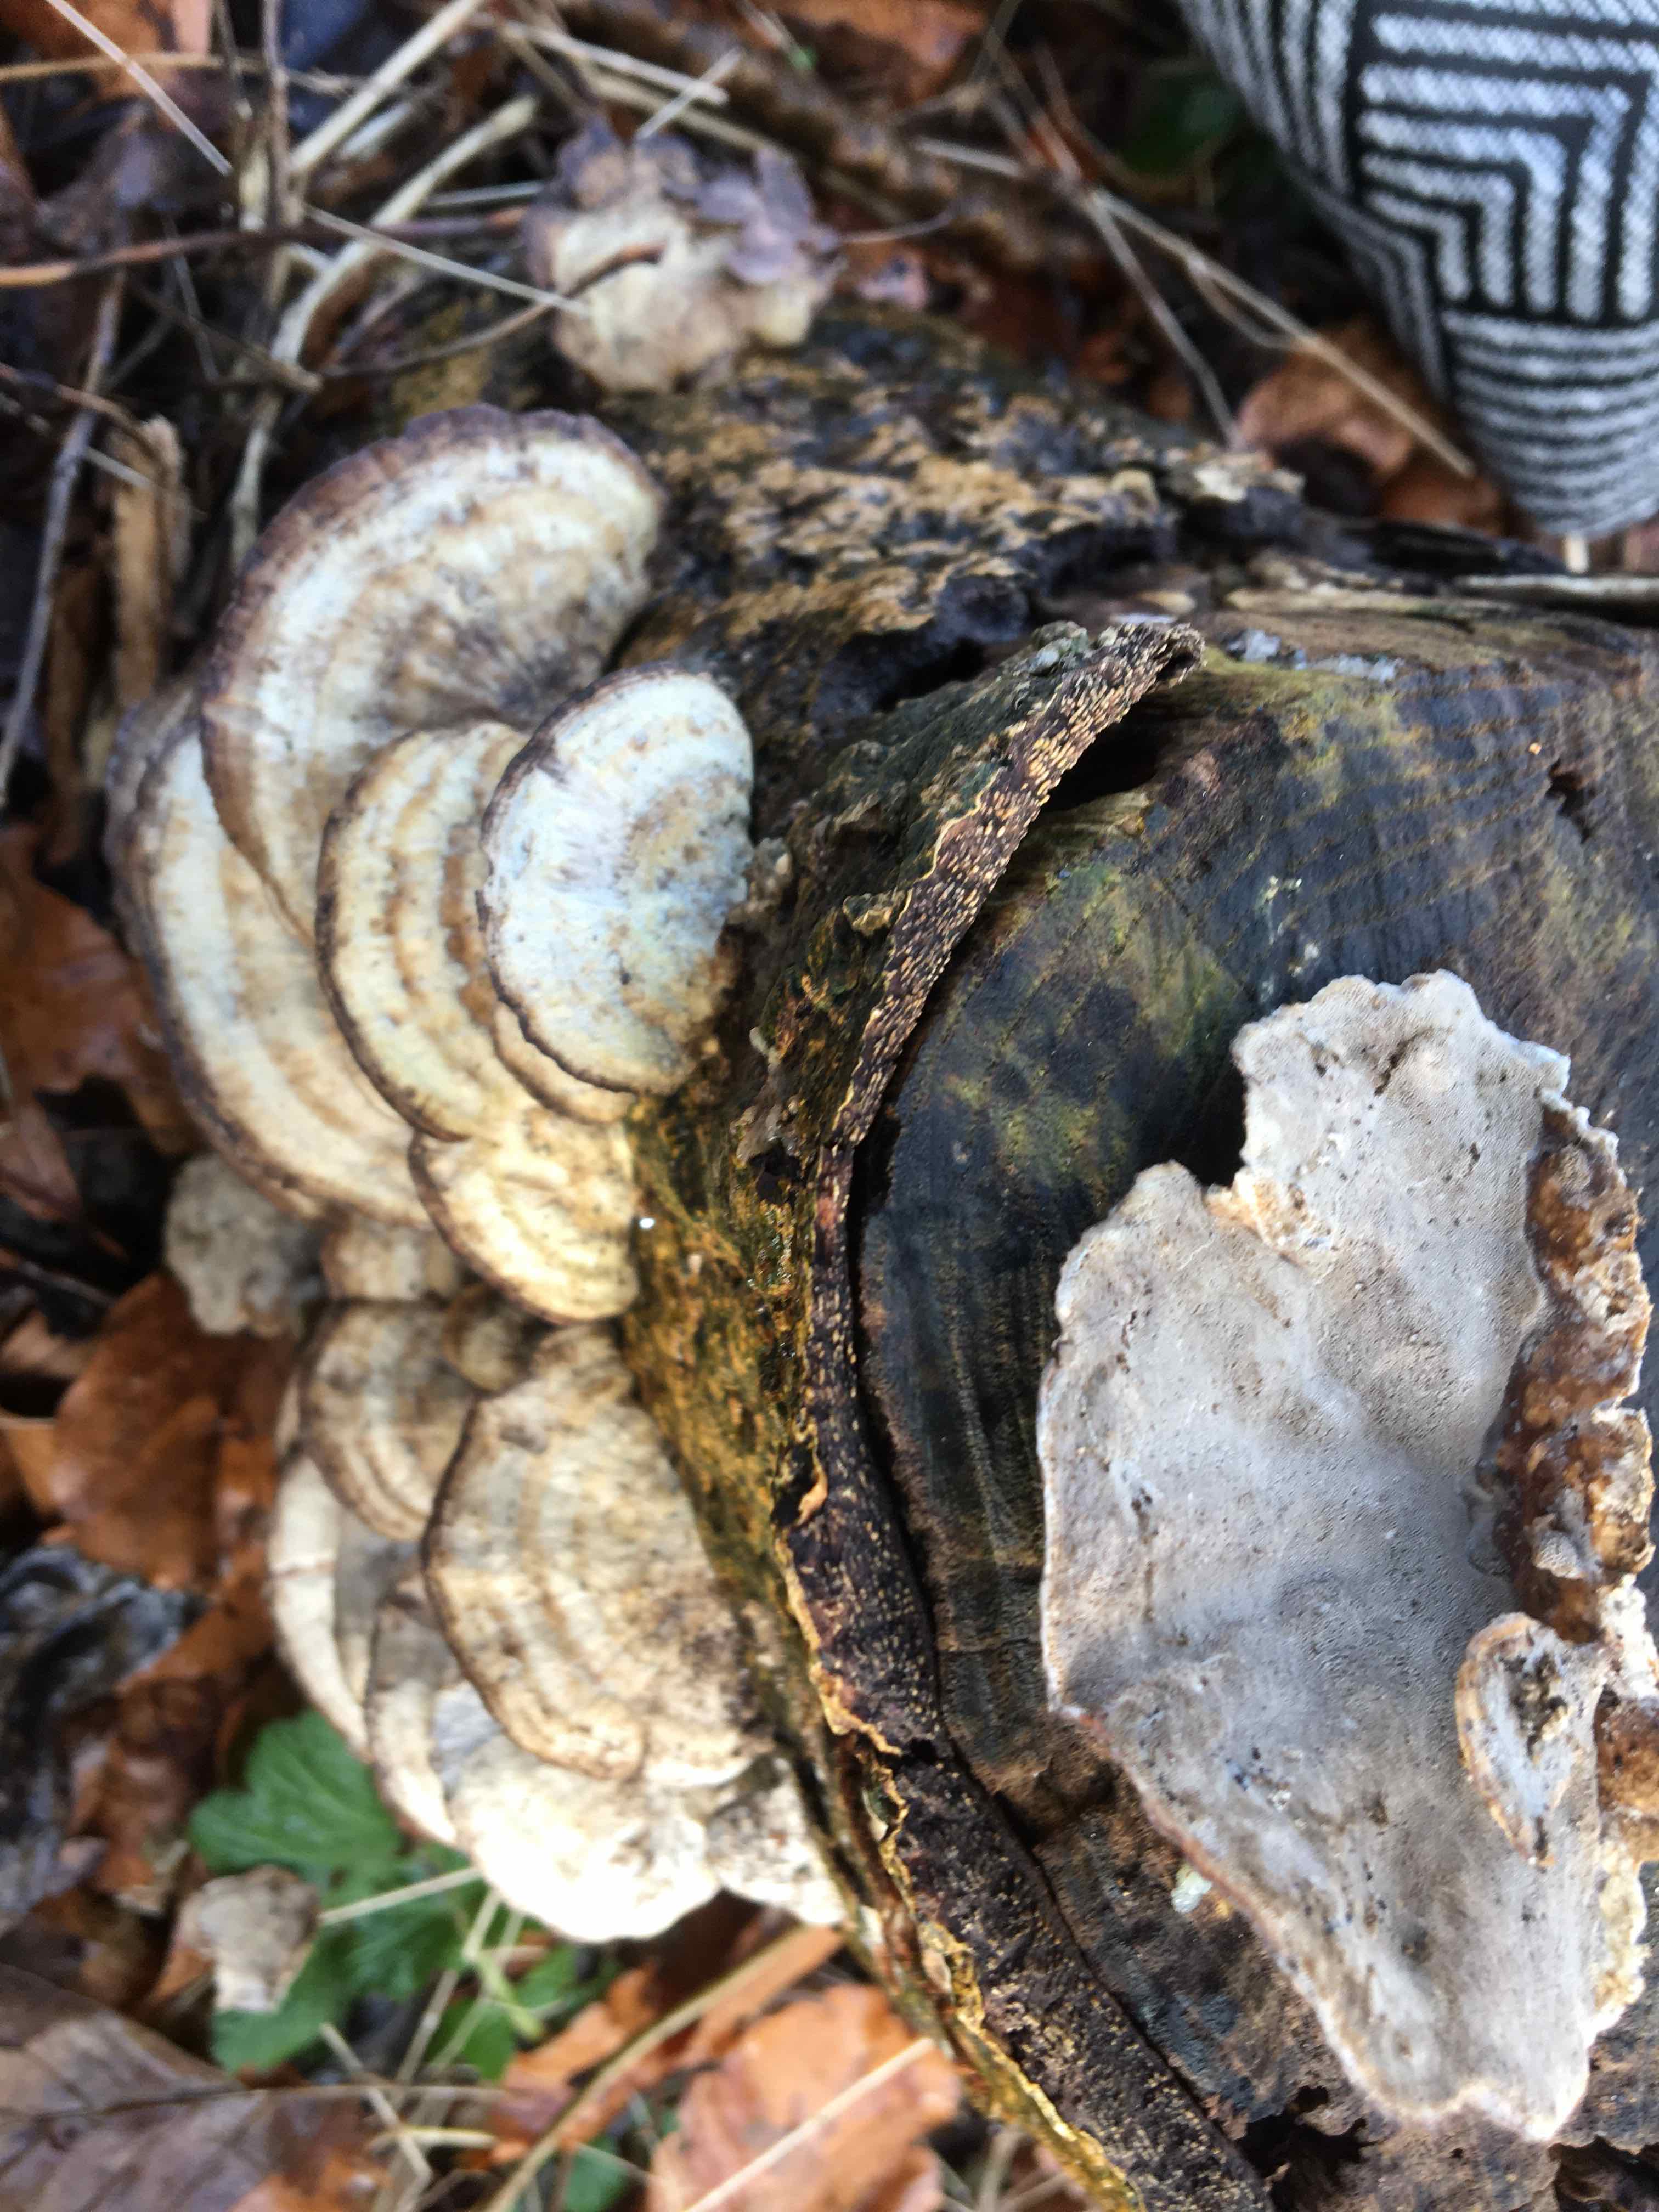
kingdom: Fungi
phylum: Basidiomycota
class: Agaricomycetes
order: Polyporales
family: Phanerochaetaceae
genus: Bjerkandera
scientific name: Bjerkandera adusta
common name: sveden sodporesvamp
